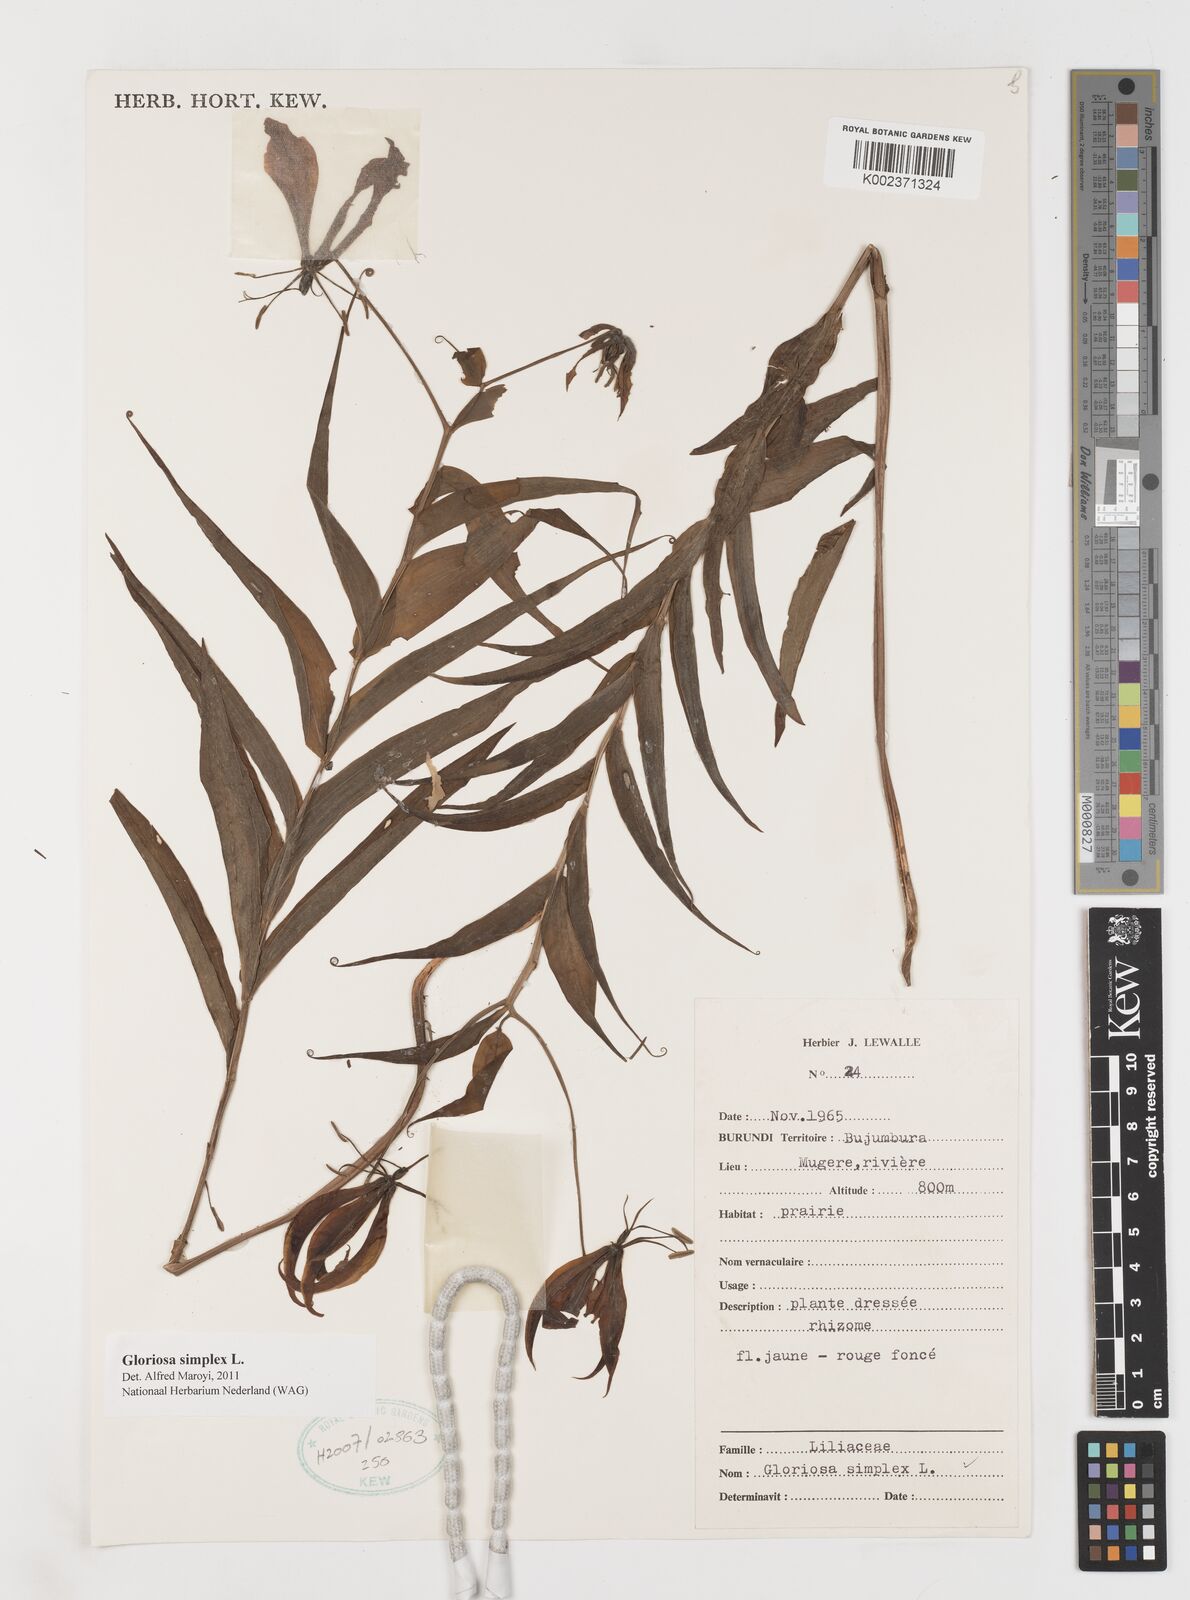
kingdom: Plantae
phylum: Tracheophyta
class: Liliopsida
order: Liliales
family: Colchicaceae
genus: Gloriosa
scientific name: Gloriosa simplex
